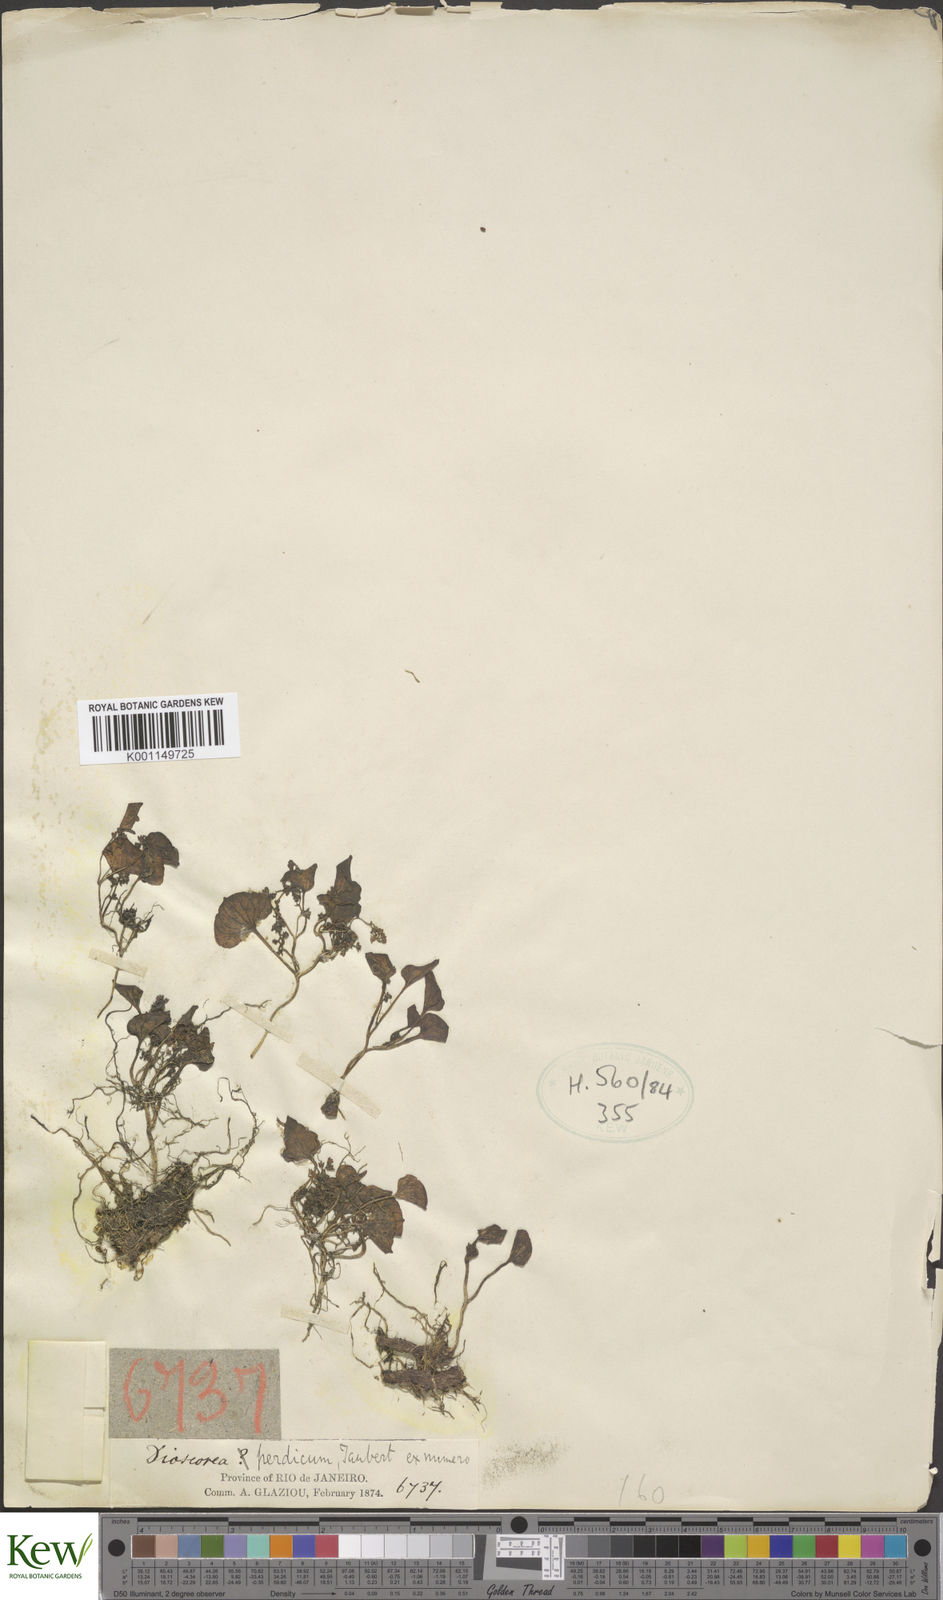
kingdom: Plantae
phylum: Tracheophyta
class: Liliopsida
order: Dioscoreales
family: Dioscoreaceae
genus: Dioscorea
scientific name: Dioscorea perdicum
